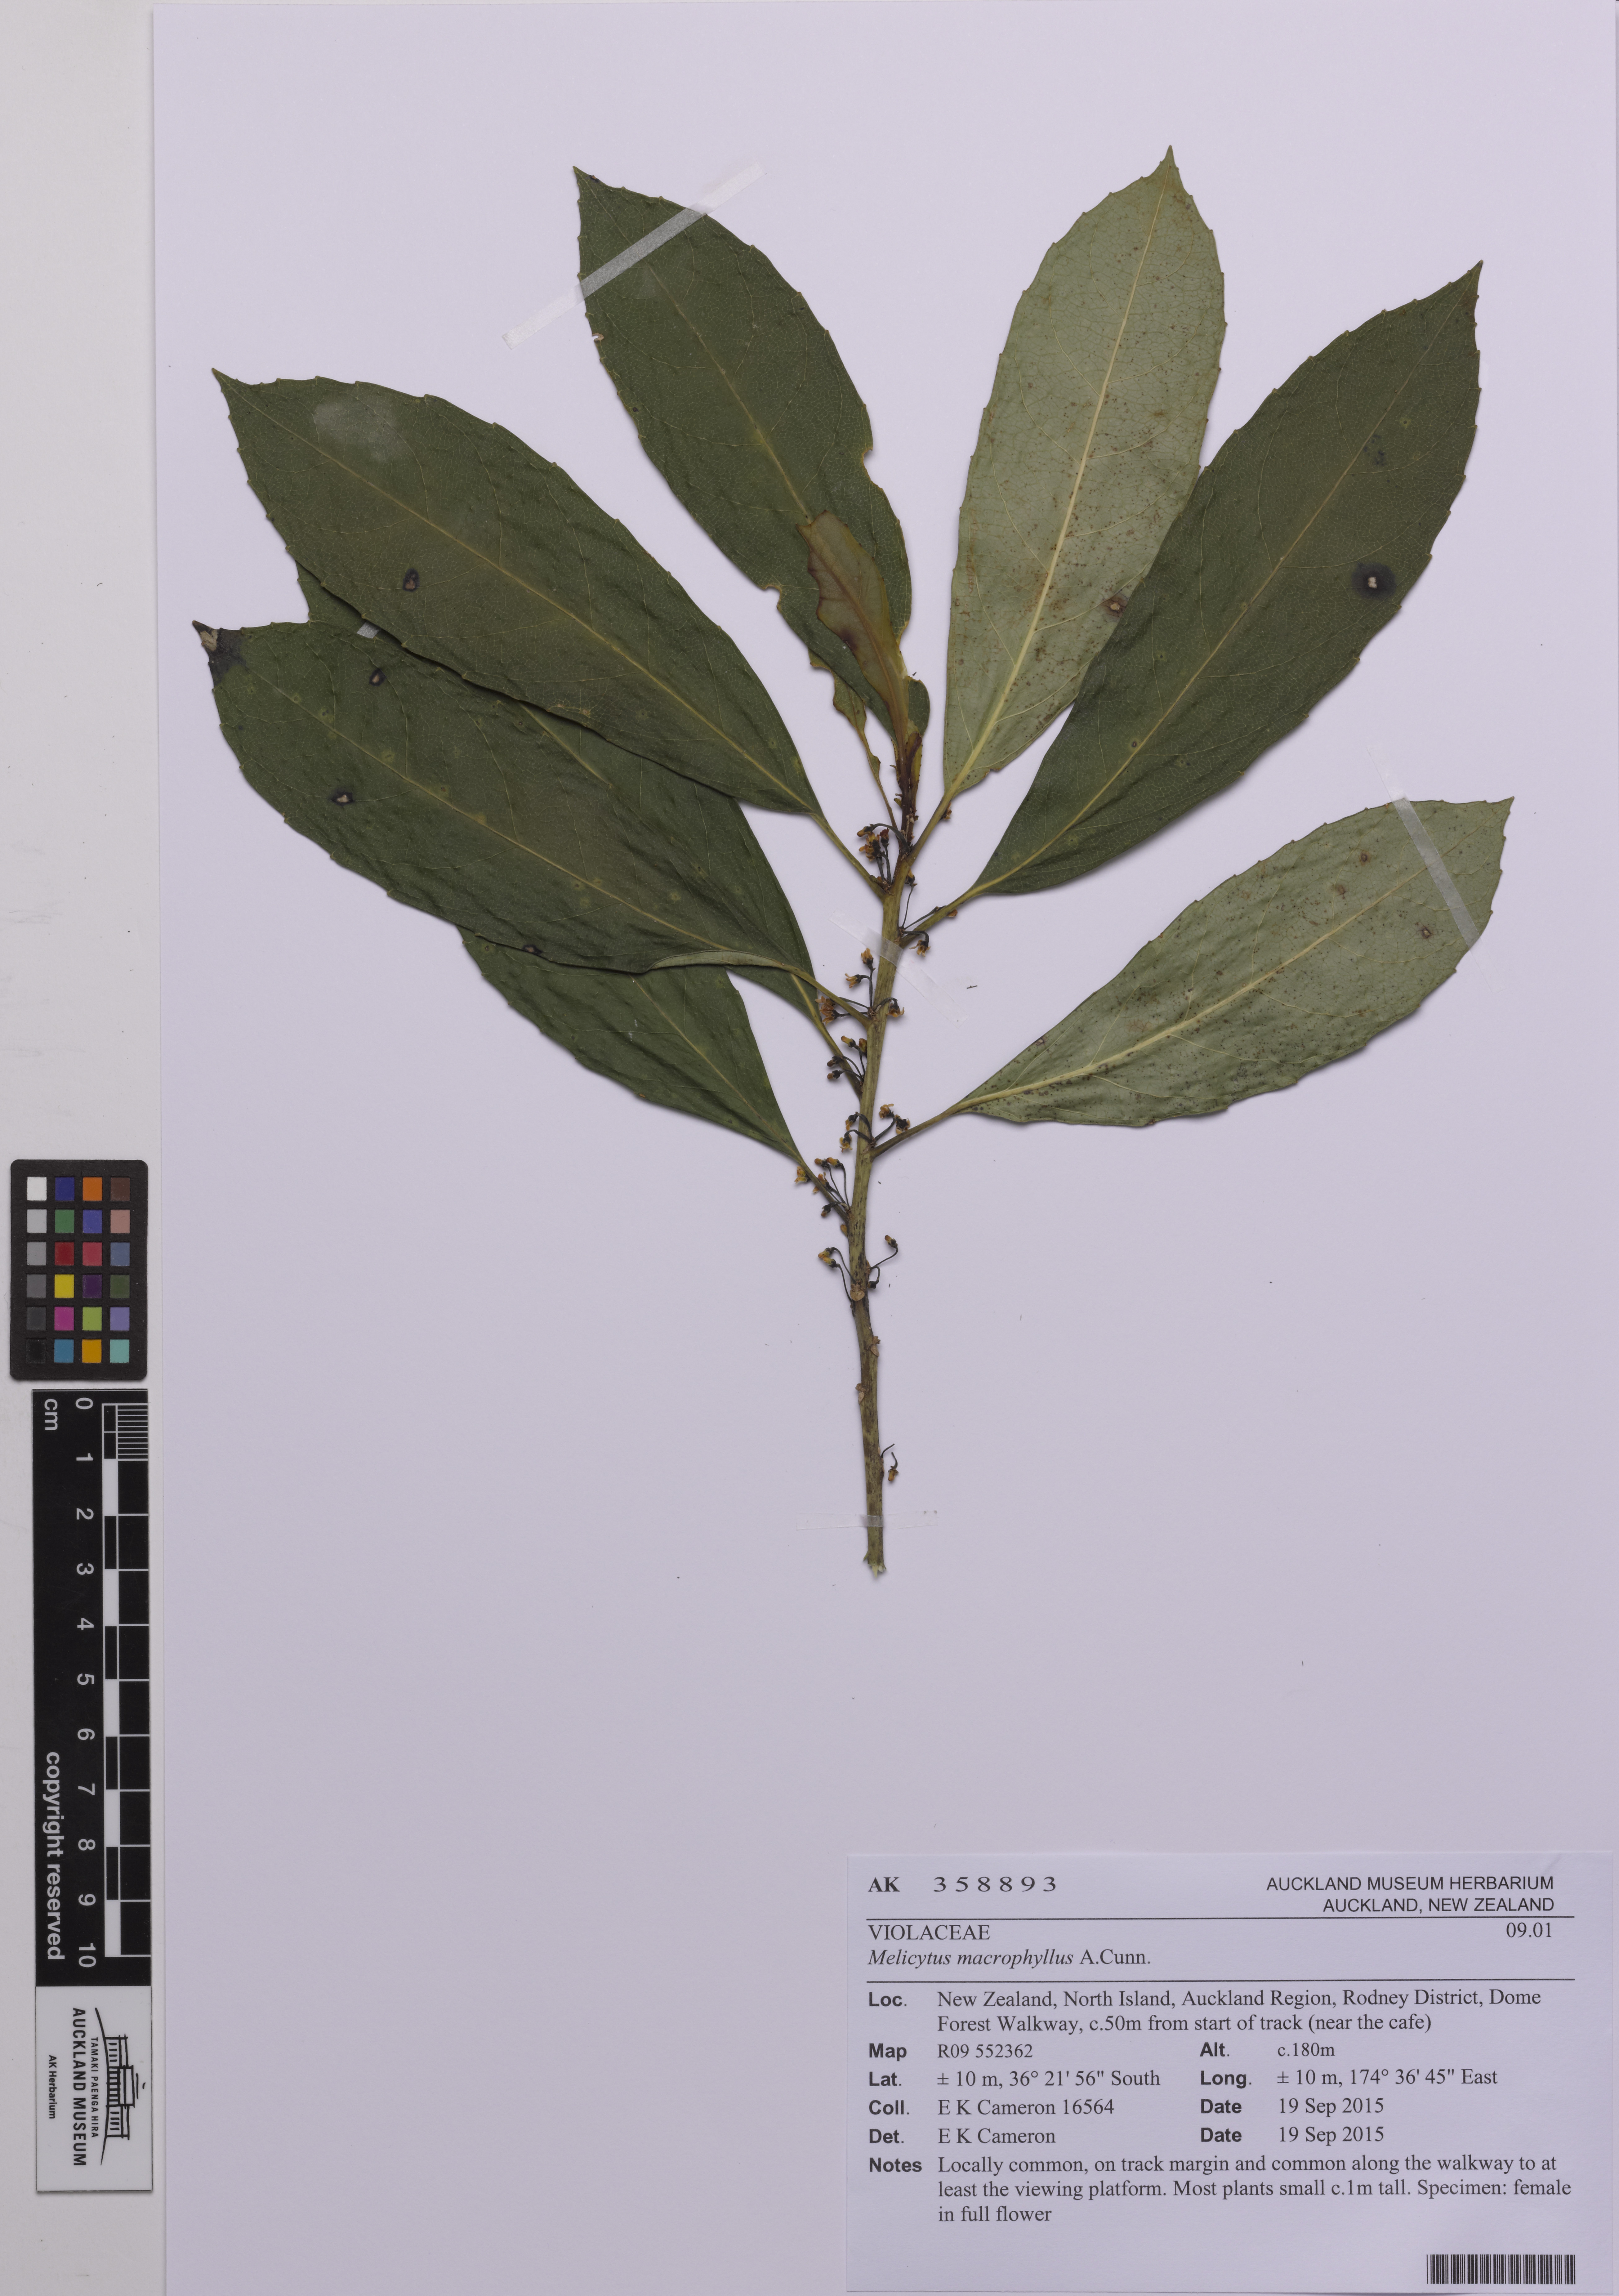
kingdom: Plantae
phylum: Tracheophyta
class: Magnoliopsida
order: Malpighiales
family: Violaceae
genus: Melicytus
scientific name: Melicytus macrophyllus
